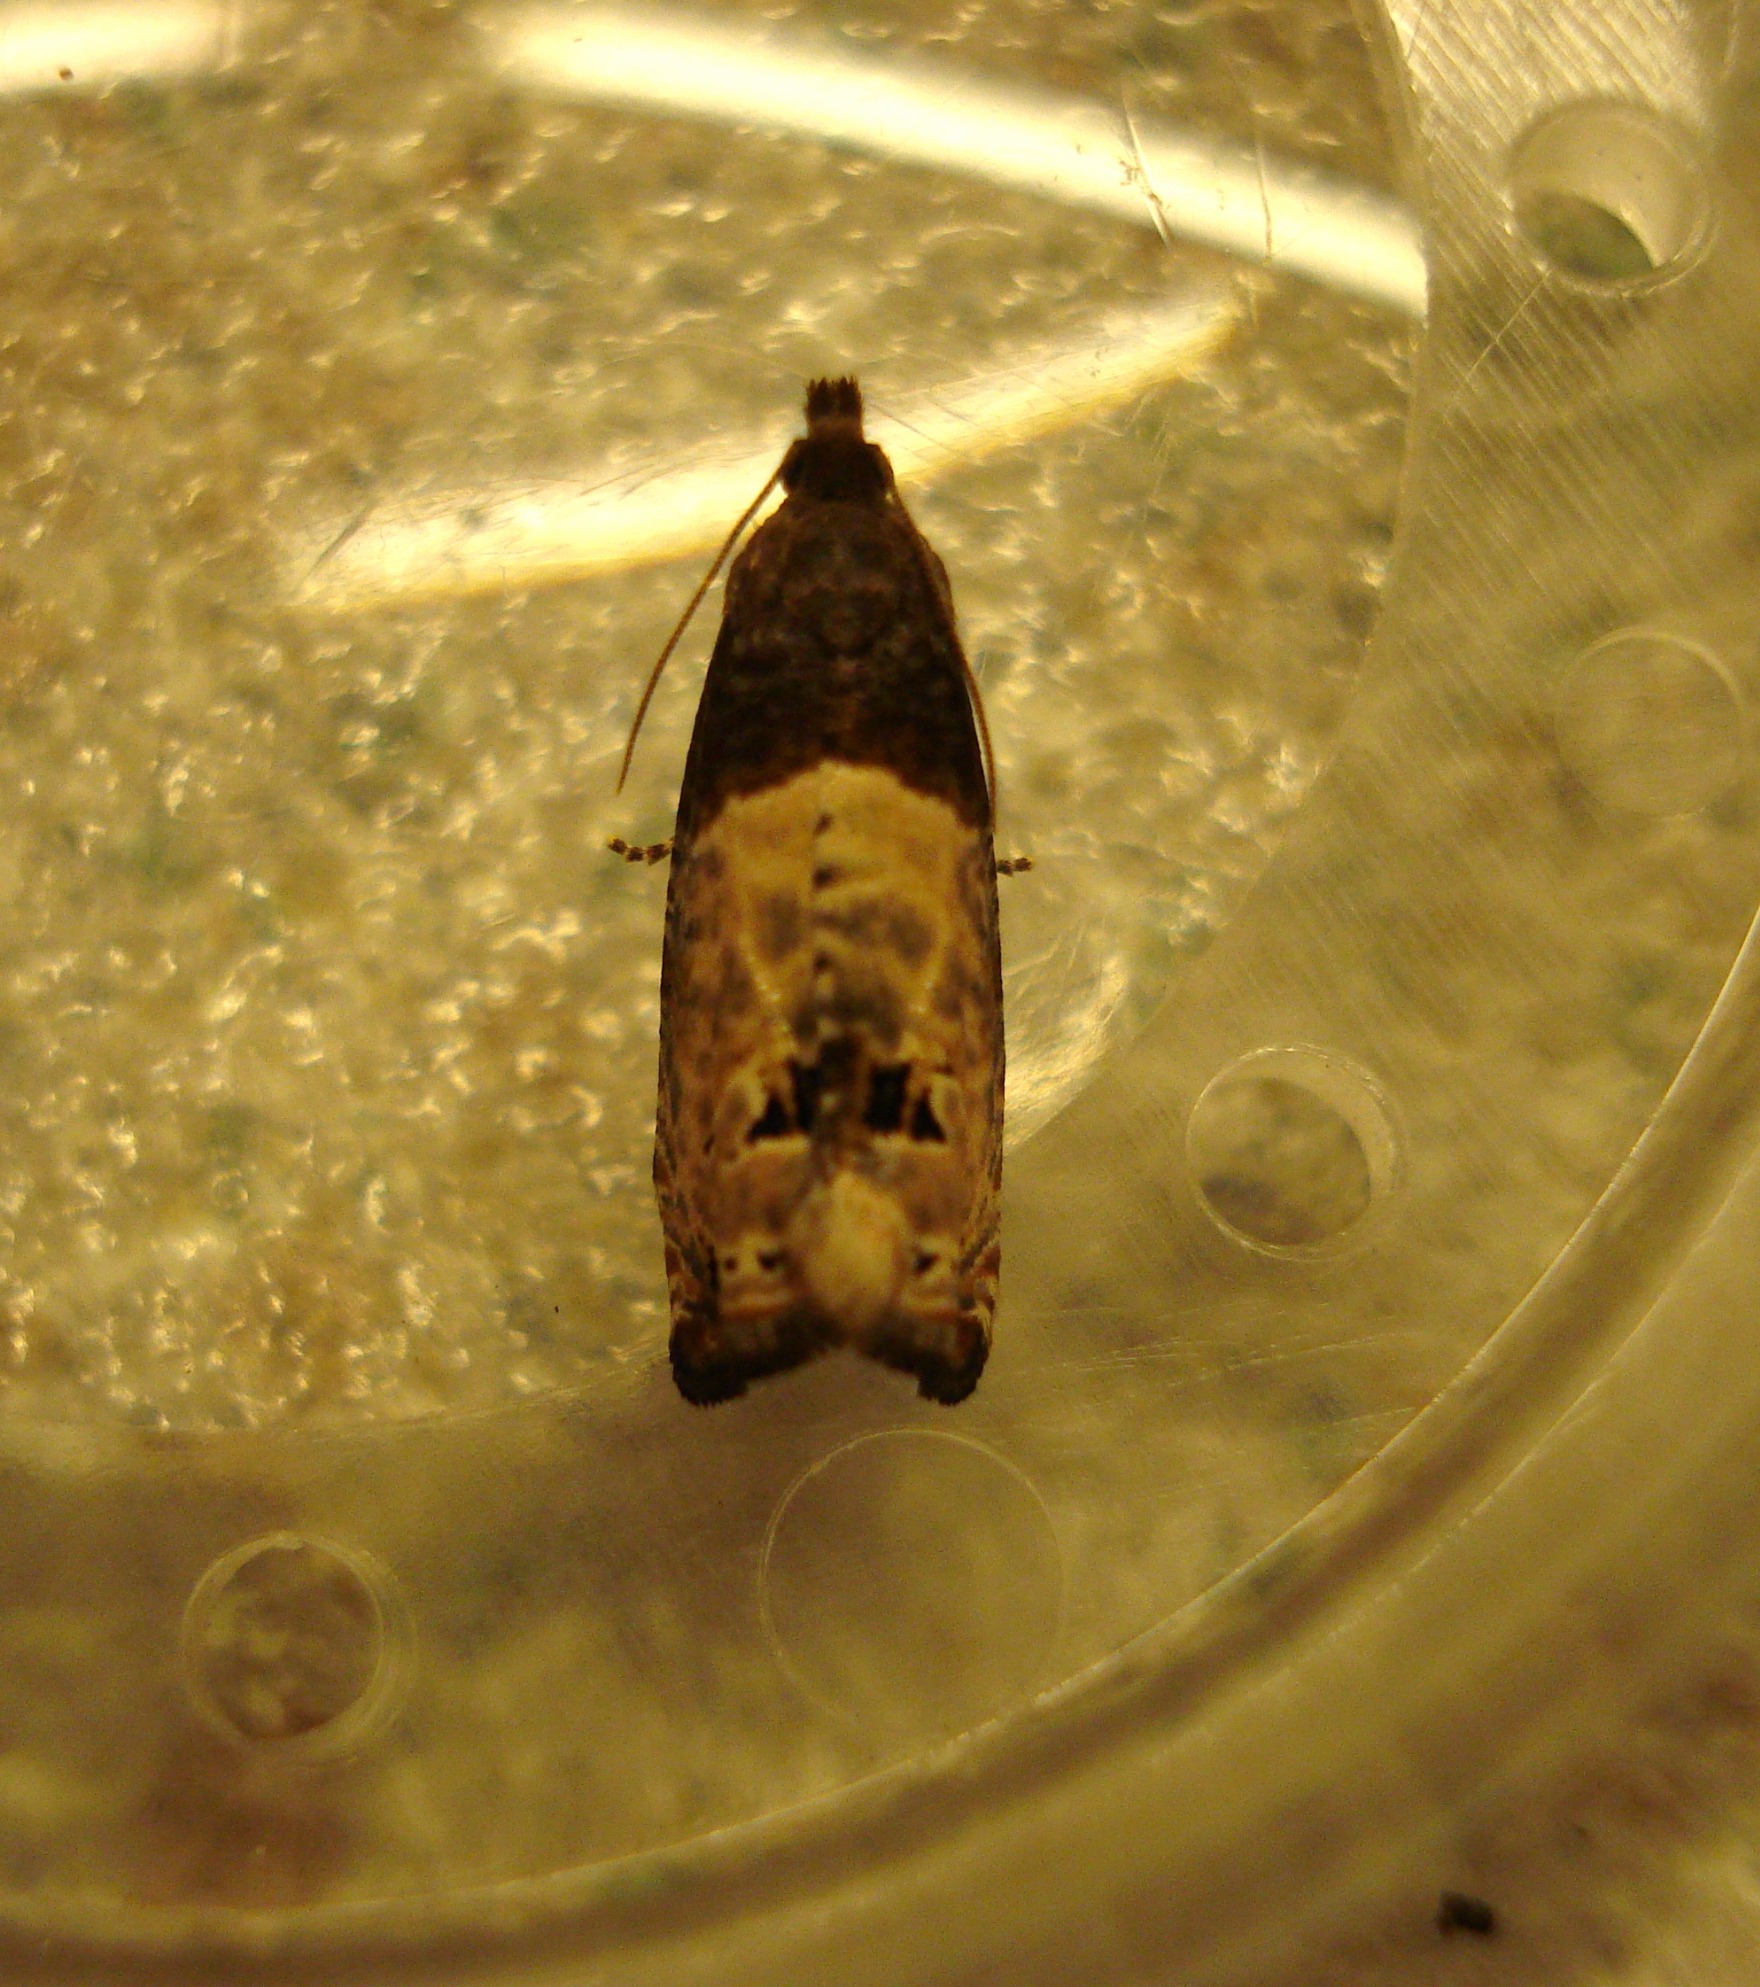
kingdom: Animalia
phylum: Arthropoda
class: Insecta
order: Lepidoptera
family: Tortricidae
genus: Notocelia
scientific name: Notocelia cynosbatella
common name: Stor rosenvikler
